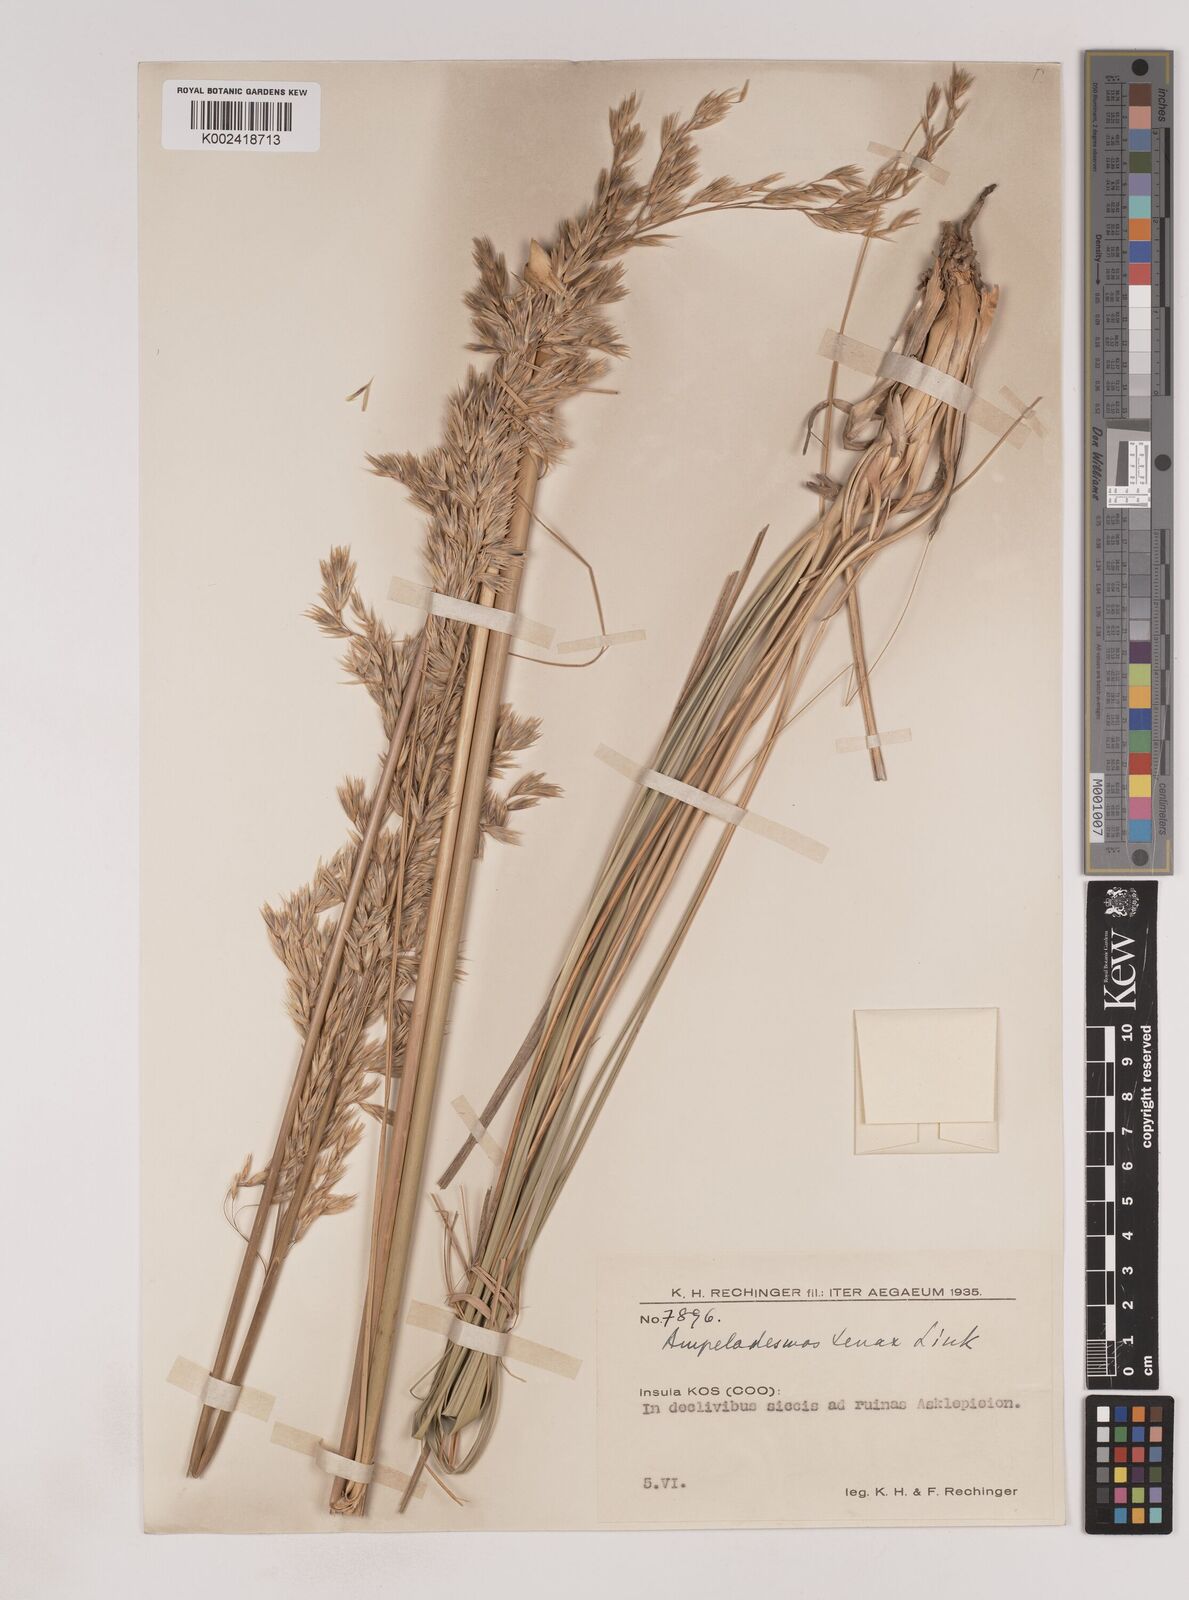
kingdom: Plantae
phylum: Tracheophyta
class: Liliopsida
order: Poales
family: Poaceae
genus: Ampelodesmos
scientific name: Ampelodesmos mauritanicus
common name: Mauritanian grass
